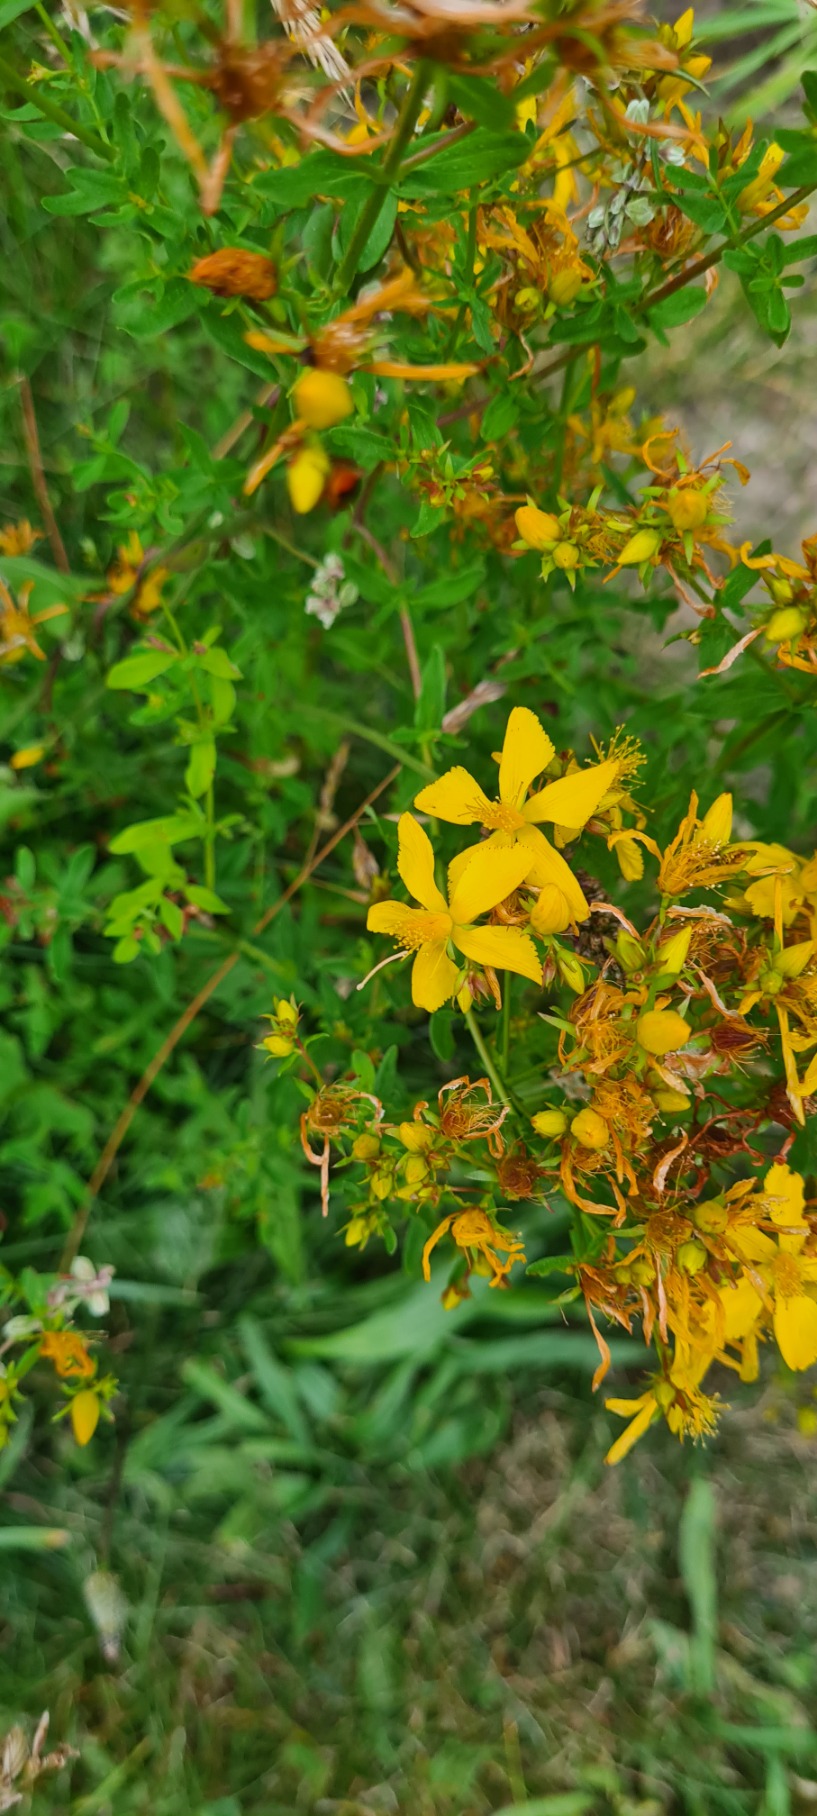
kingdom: Plantae
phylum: Tracheophyta
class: Magnoliopsida
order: Malpighiales
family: Hypericaceae
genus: Hypericum
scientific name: Hypericum perforatum
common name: Prikbladet perikon
